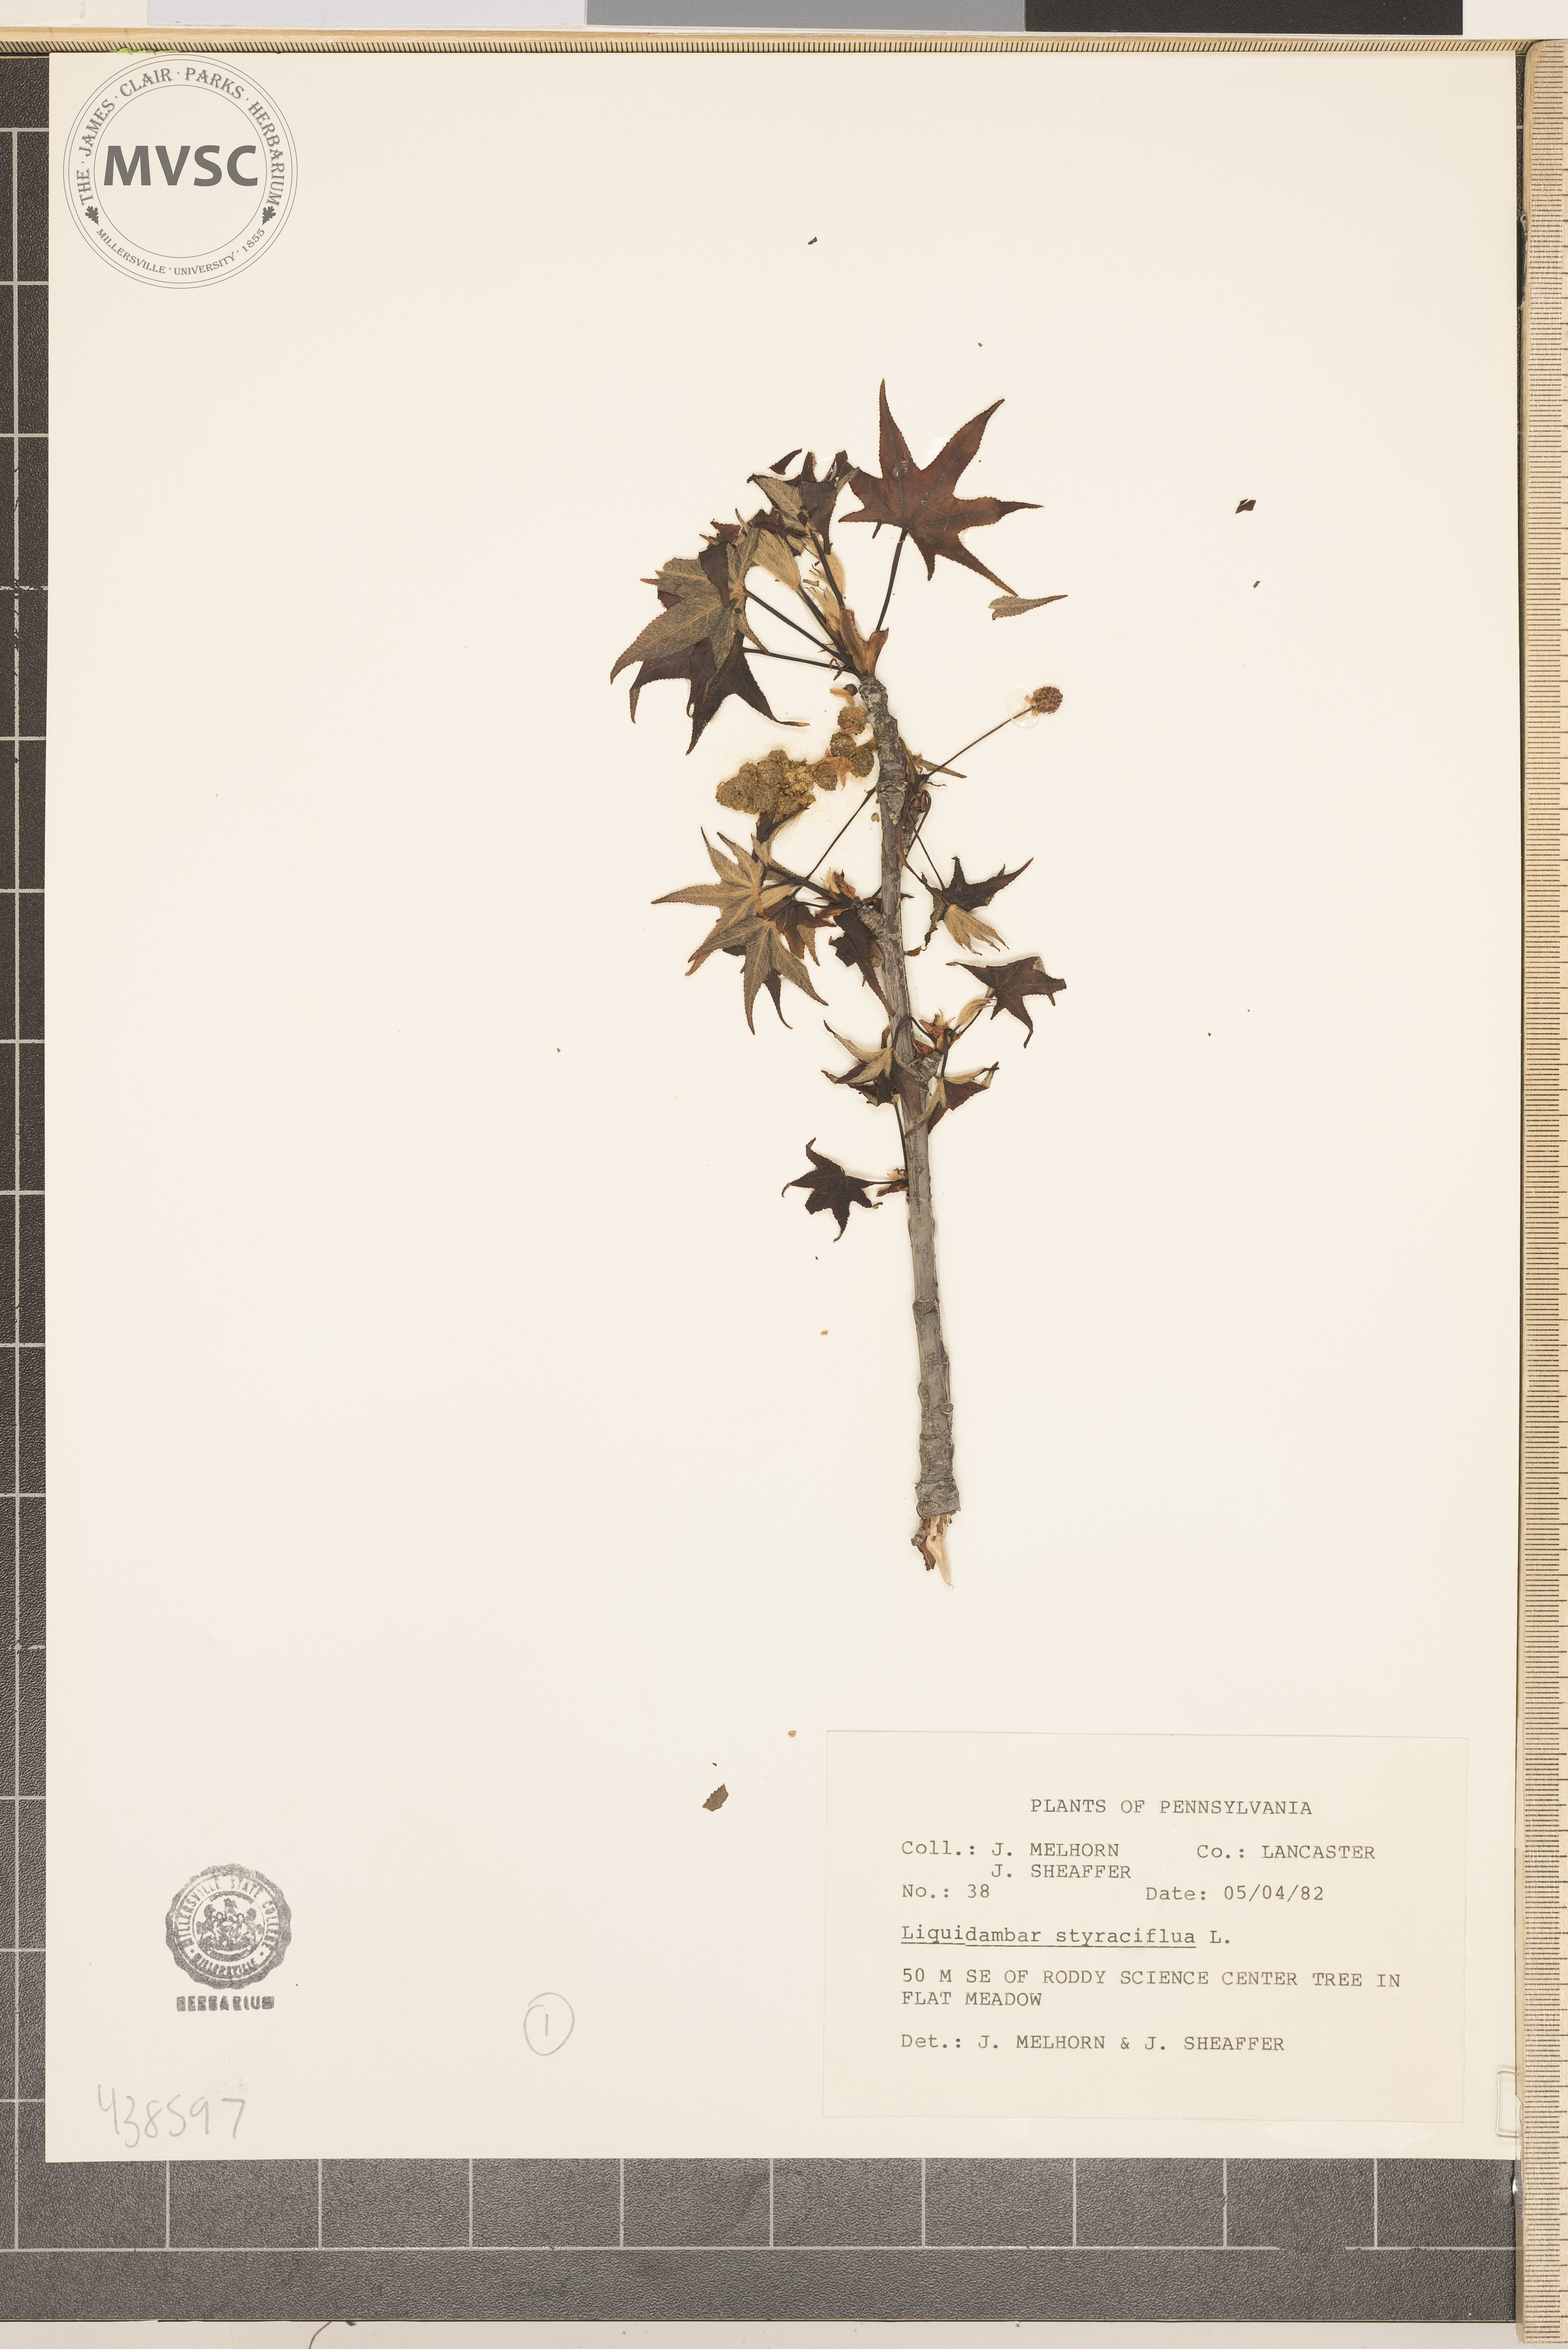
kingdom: Plantae
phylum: Tracheophyta
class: Magnoliopsida
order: Saxifragales
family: Altingiaceae
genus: Liquidambar
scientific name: Liquidambar styraciflua
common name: Sweet gum
